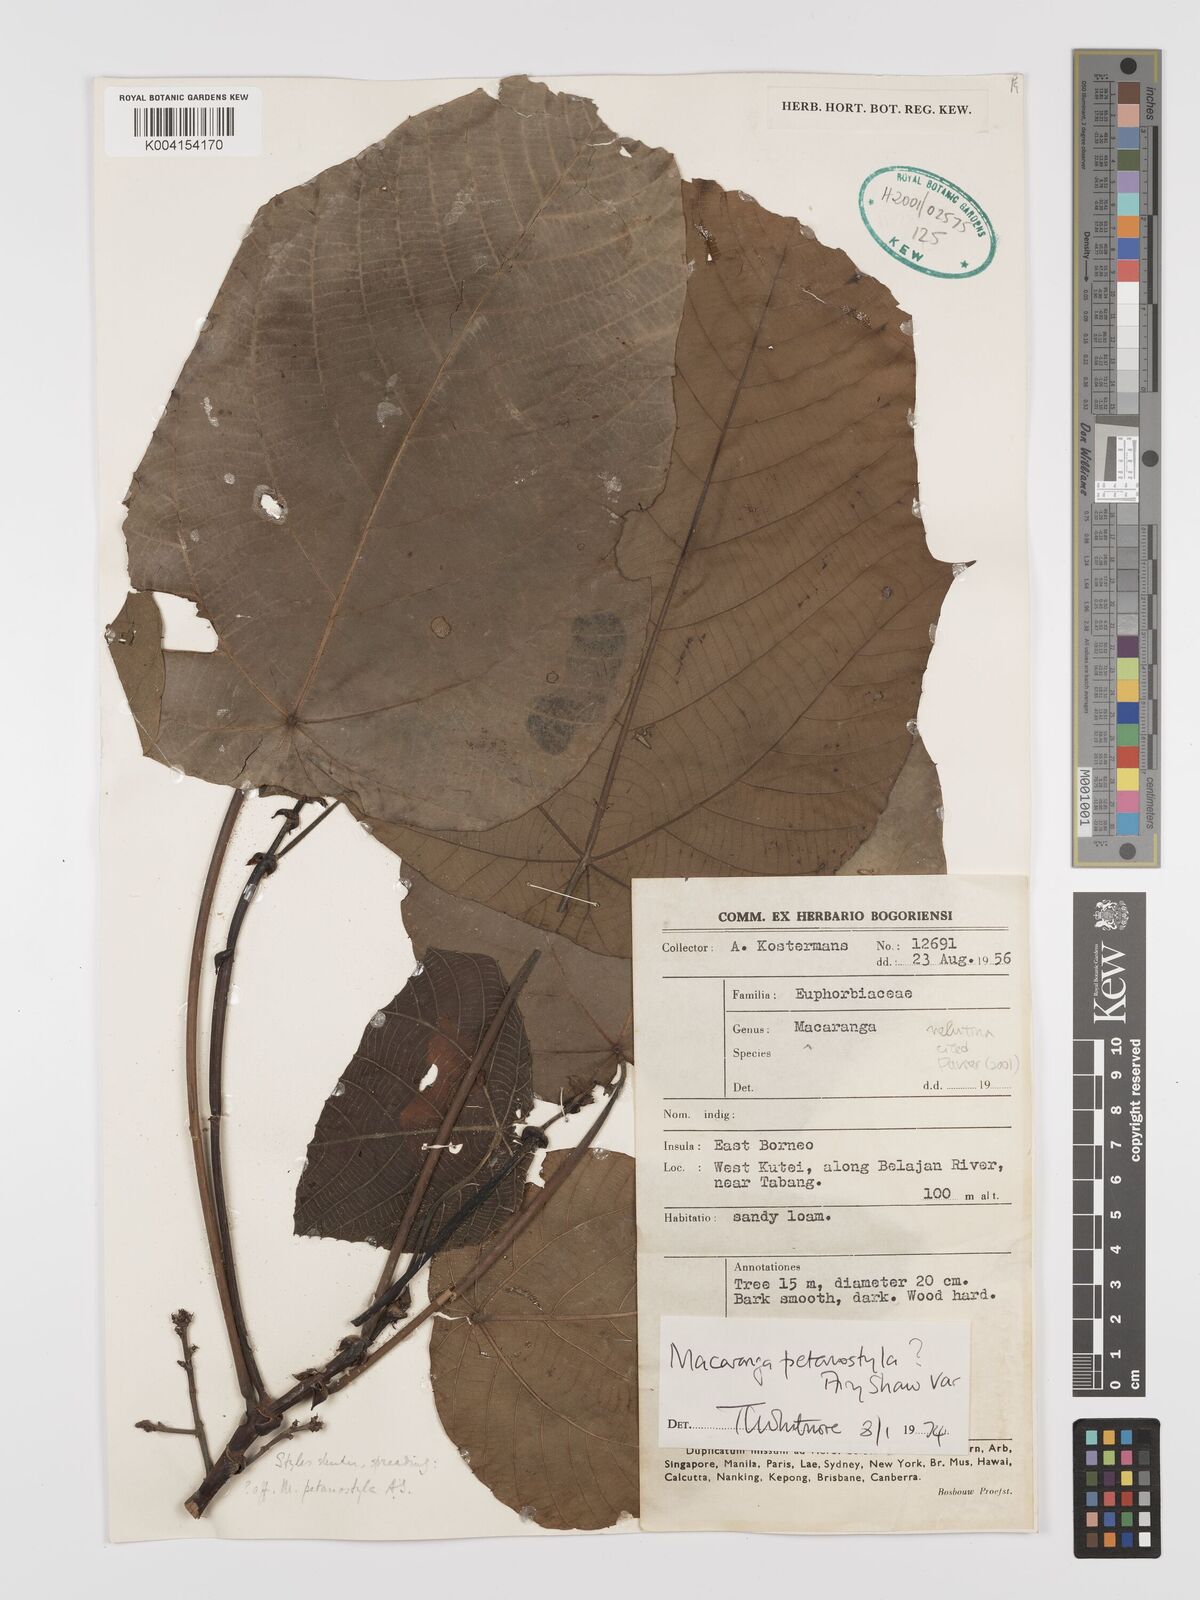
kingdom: Plantae
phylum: Tracheophyta
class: Magnoliopsida
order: Malpighiales
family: Euphorbiaceae
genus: Macaranga
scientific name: Macaranga petanostyla
